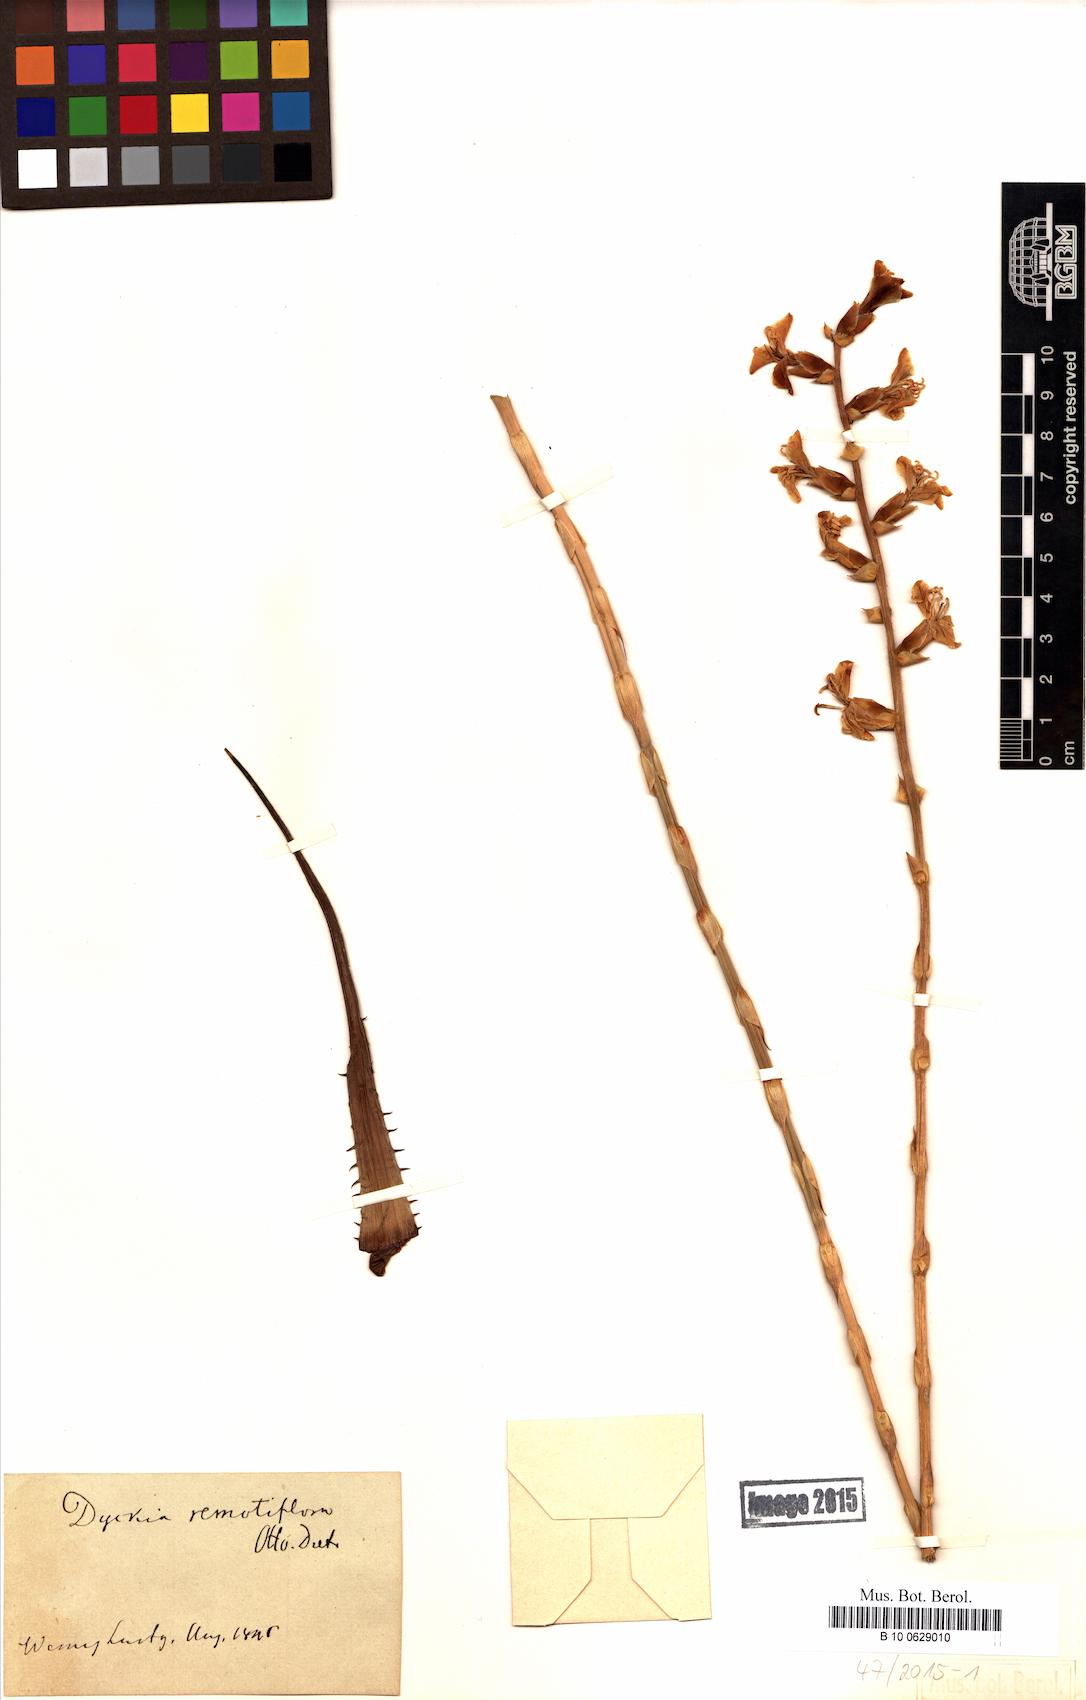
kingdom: Plantae
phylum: Tracheophyta
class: Liliopsida
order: Poales
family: Bromeliaceae
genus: Dyckia
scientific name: Dyckia remotiflora
